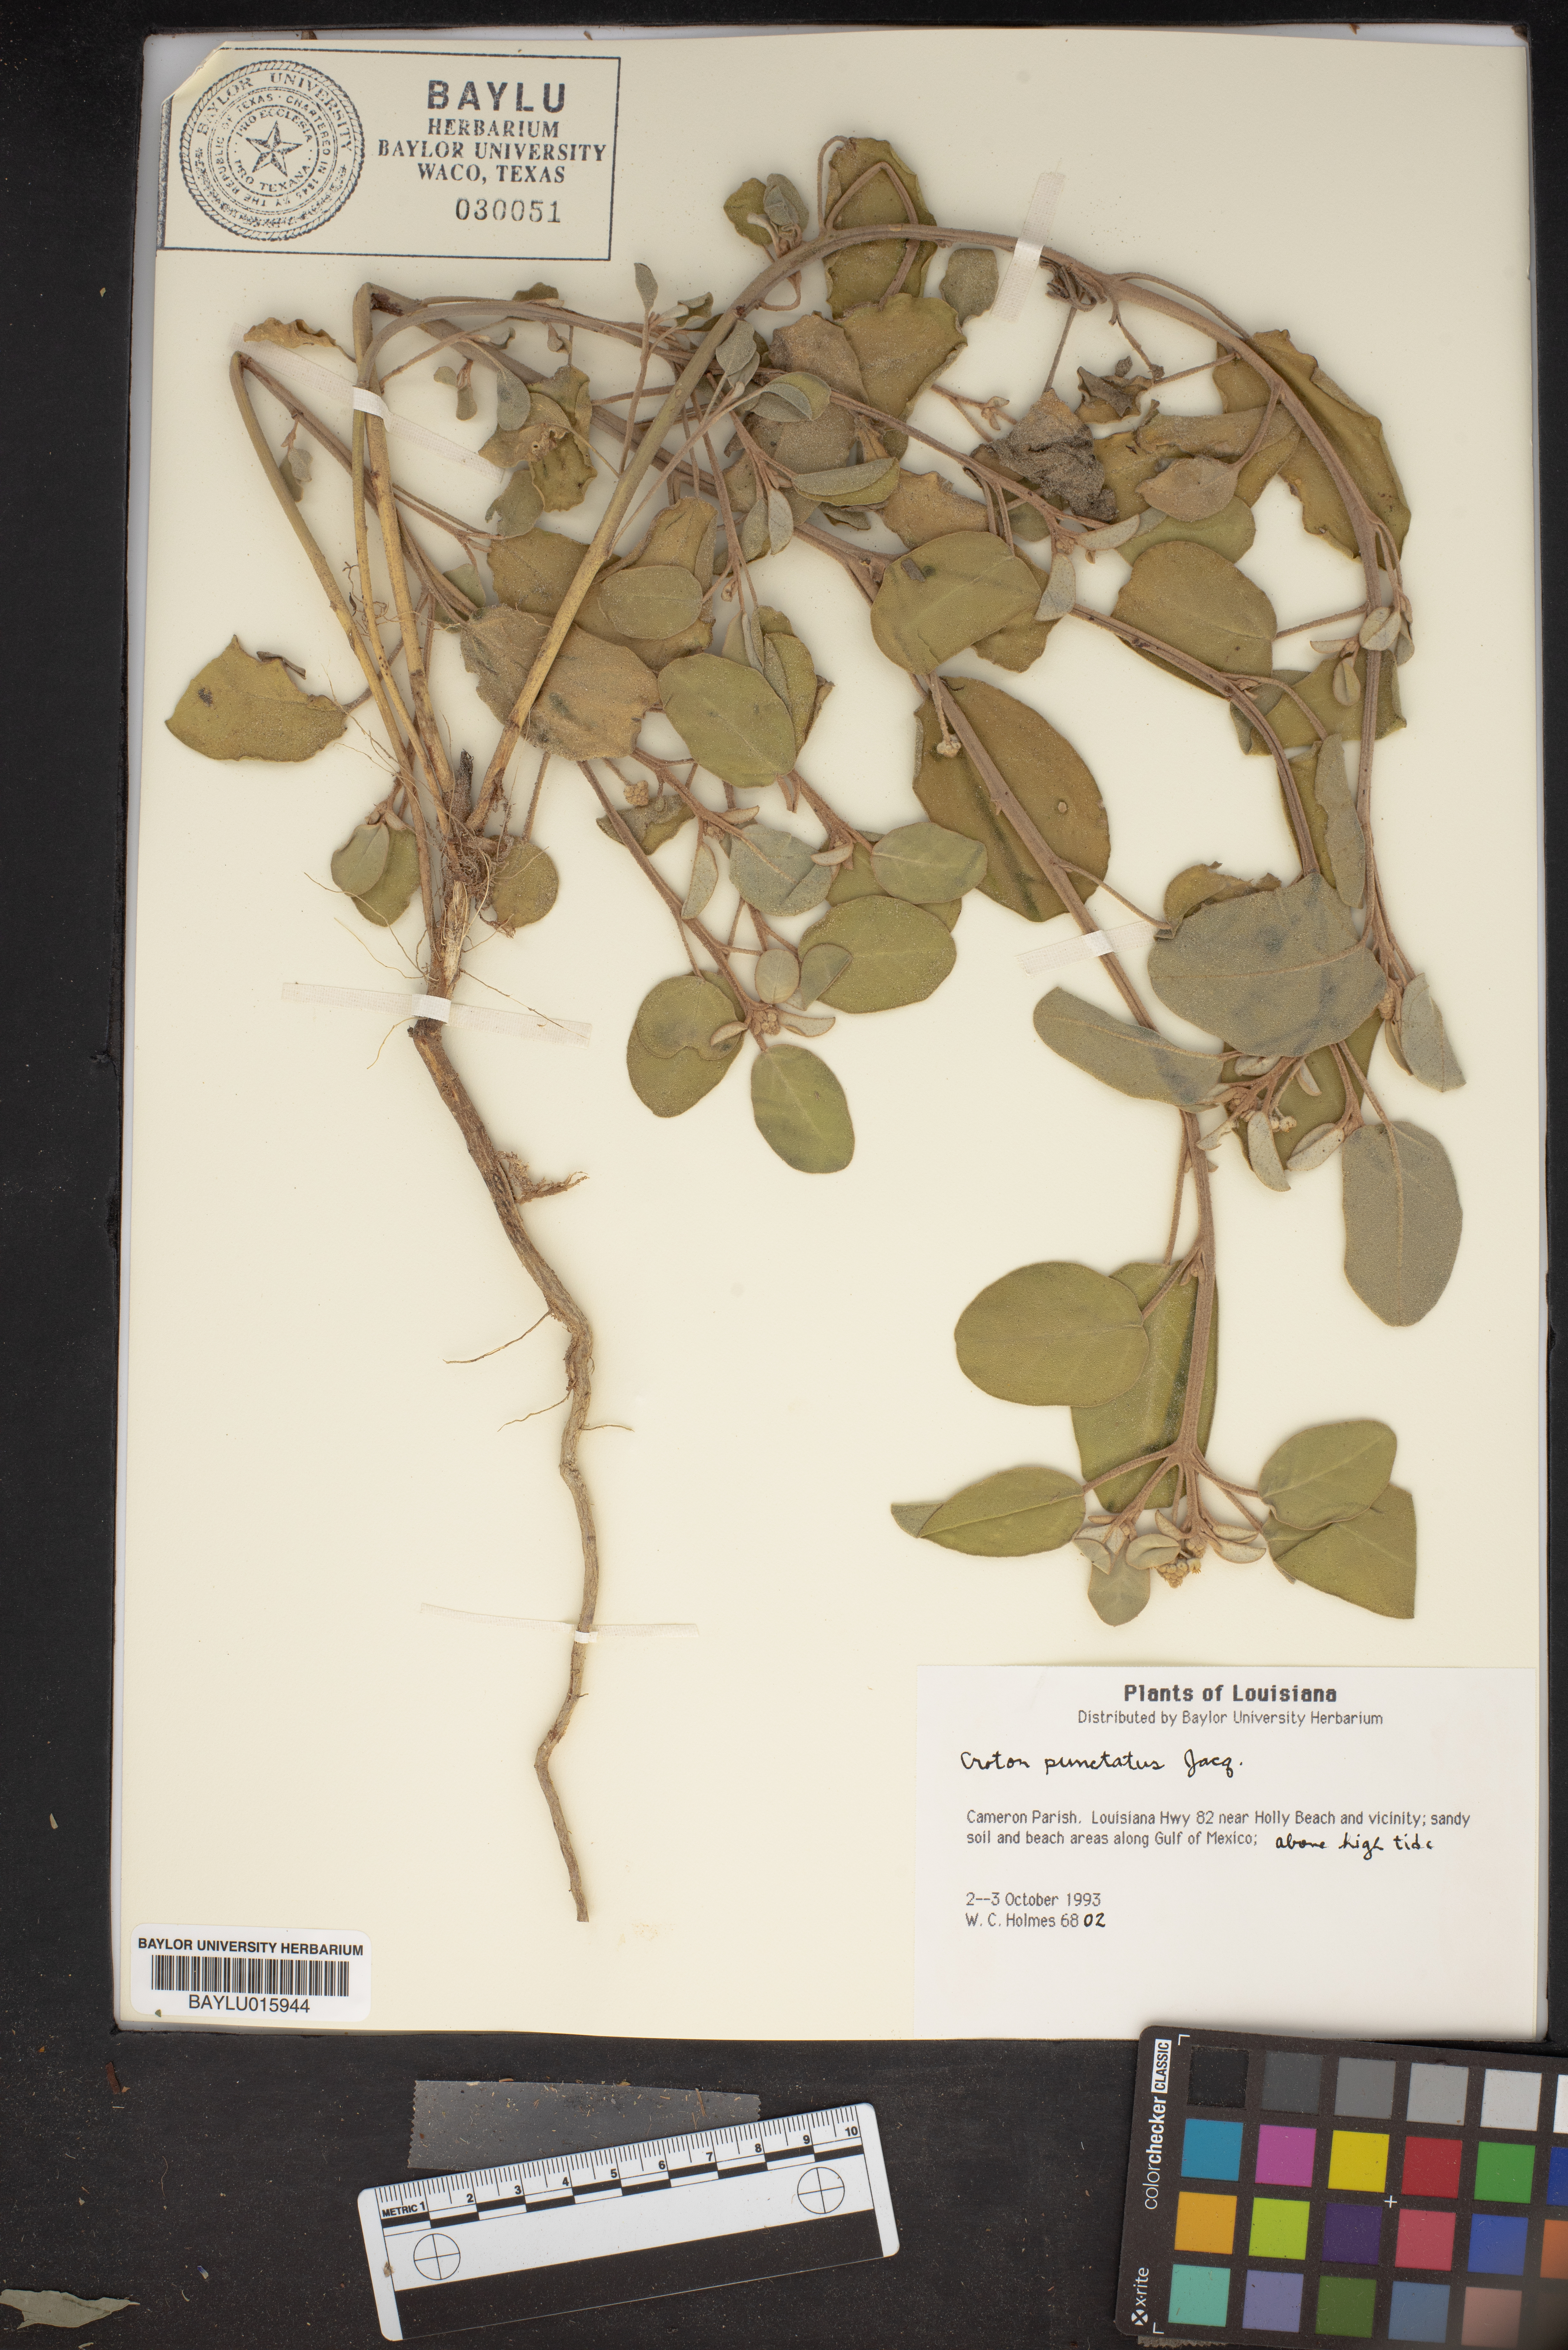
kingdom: Plantae
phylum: Tracheophyta
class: Magnoliopsida
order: Malpighiales
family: Euphorbiaceae
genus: Croton
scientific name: Croton punctatus
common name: Beach-tea
